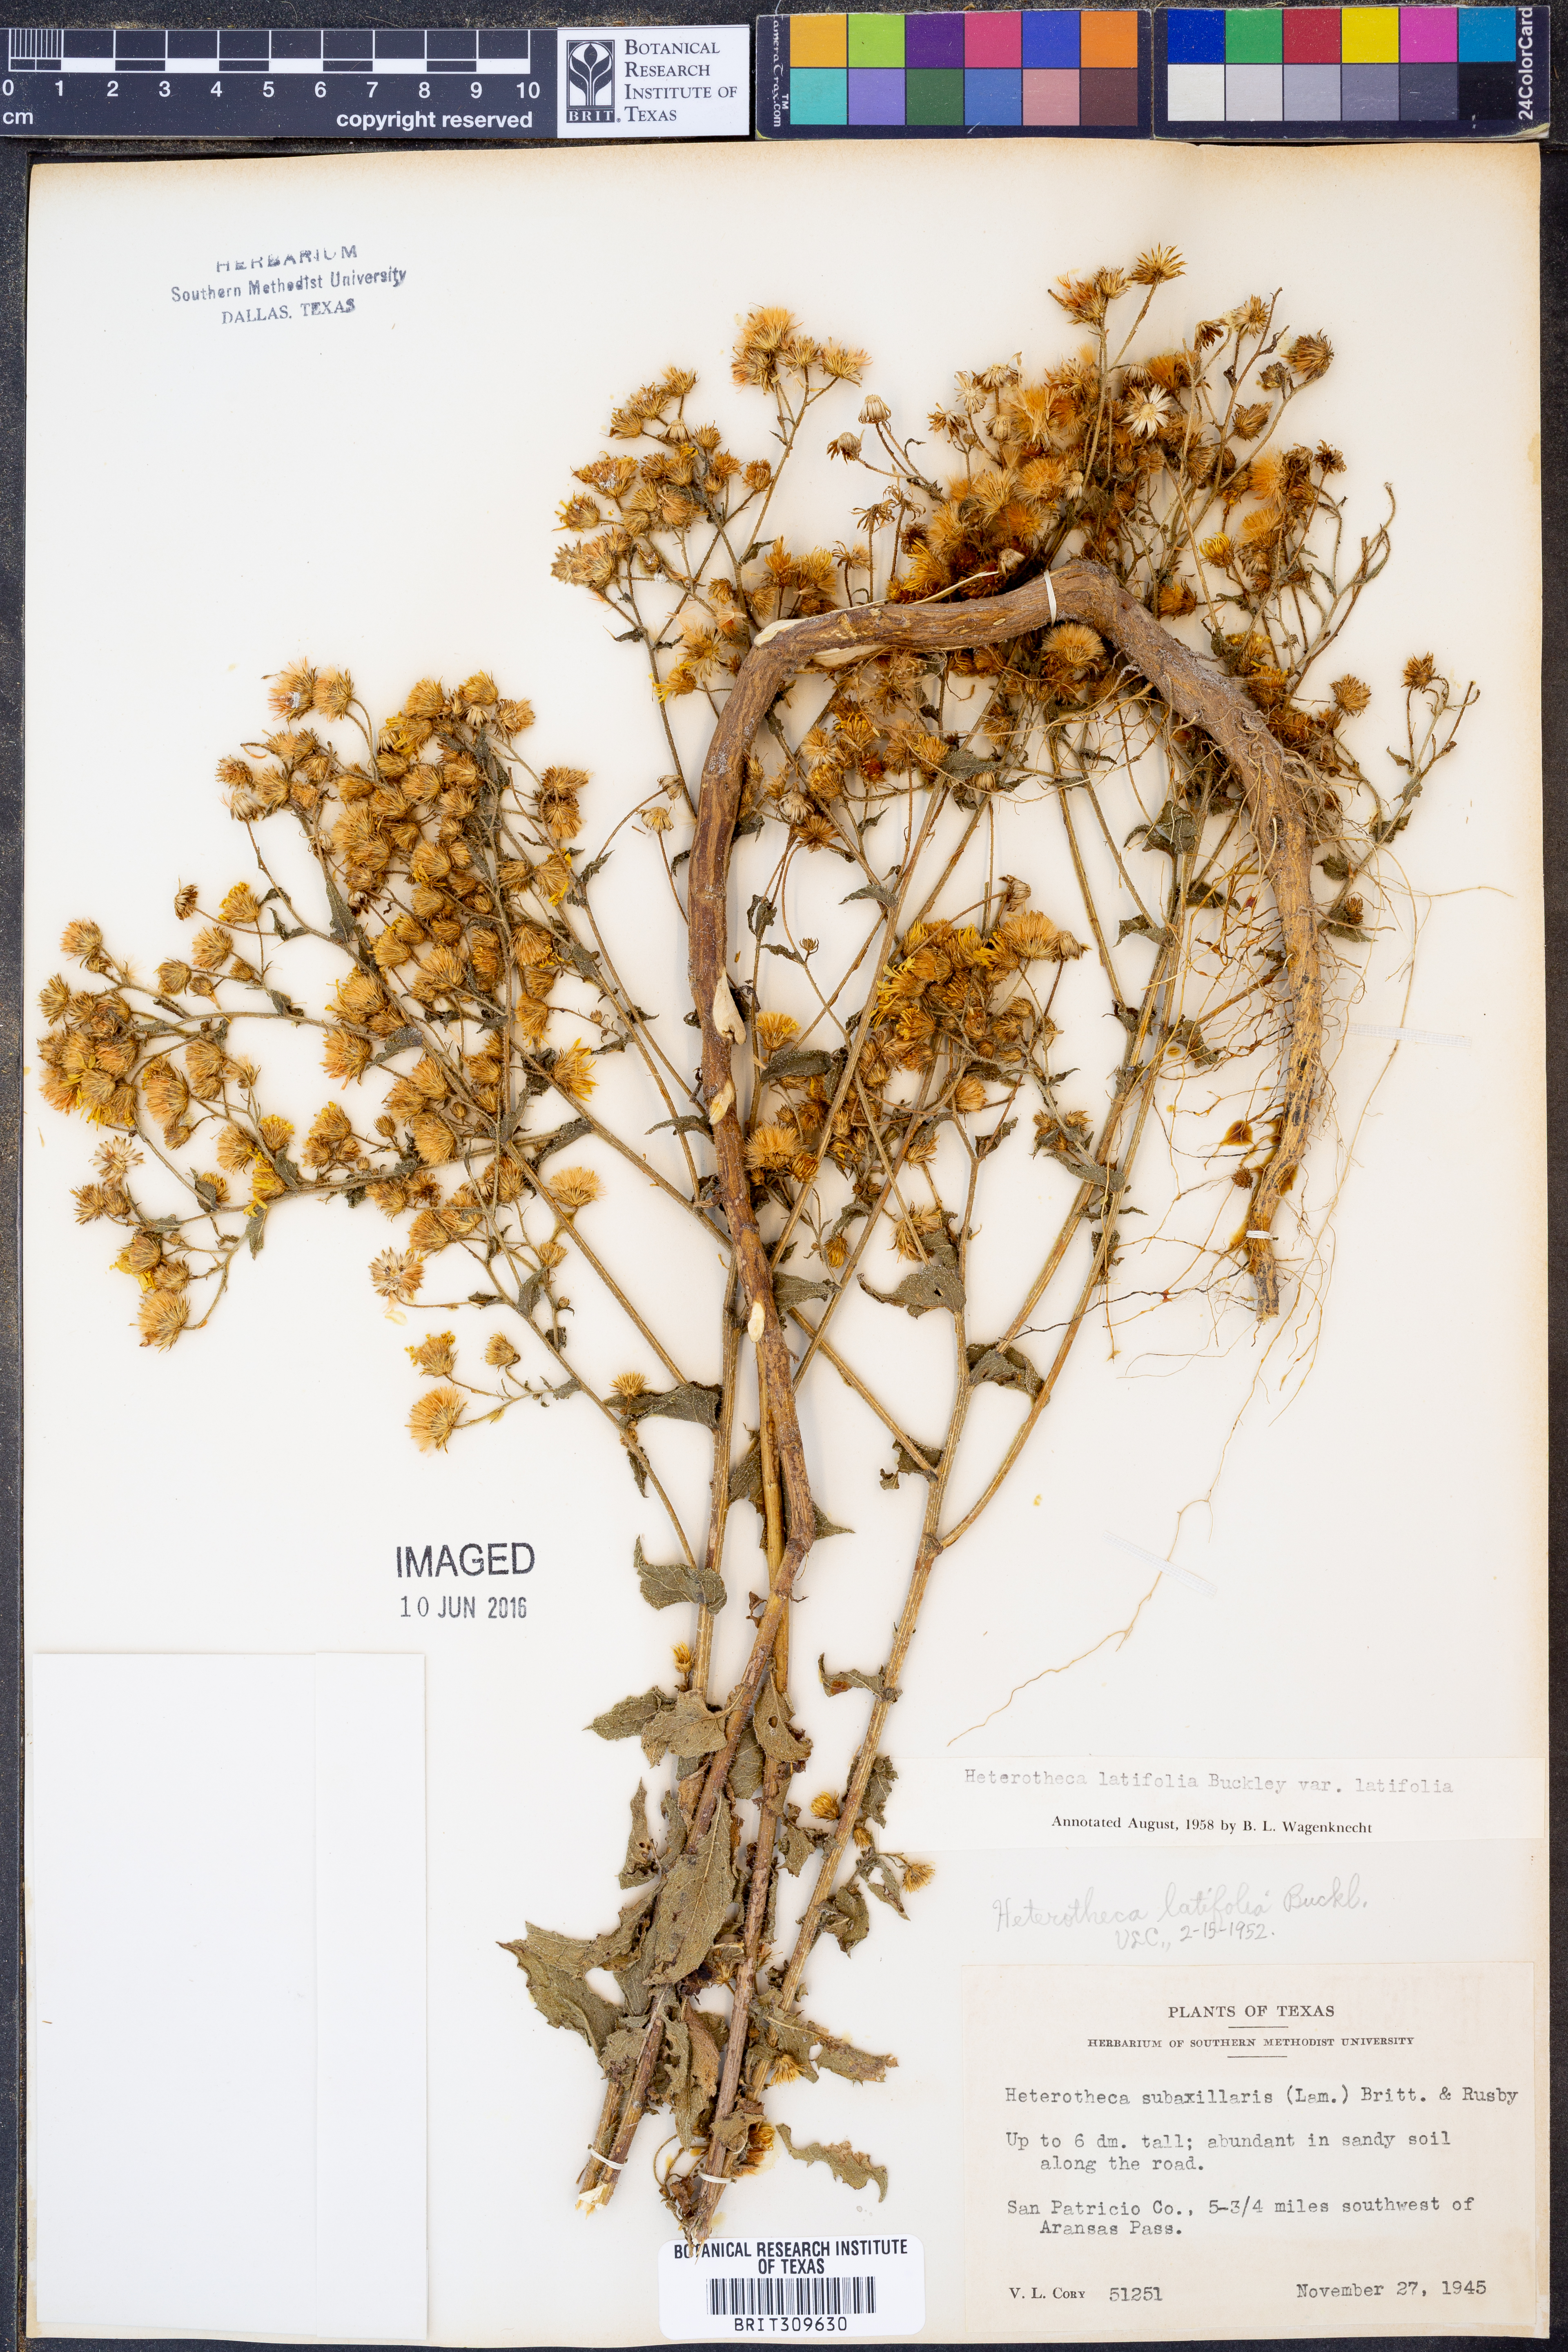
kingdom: Plantae
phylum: Tracheophyta
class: Magnoliopsida
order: Asterales
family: Asteraceae
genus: Heterotheca
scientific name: Heterotheca subaxillaris
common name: Camphorweed
